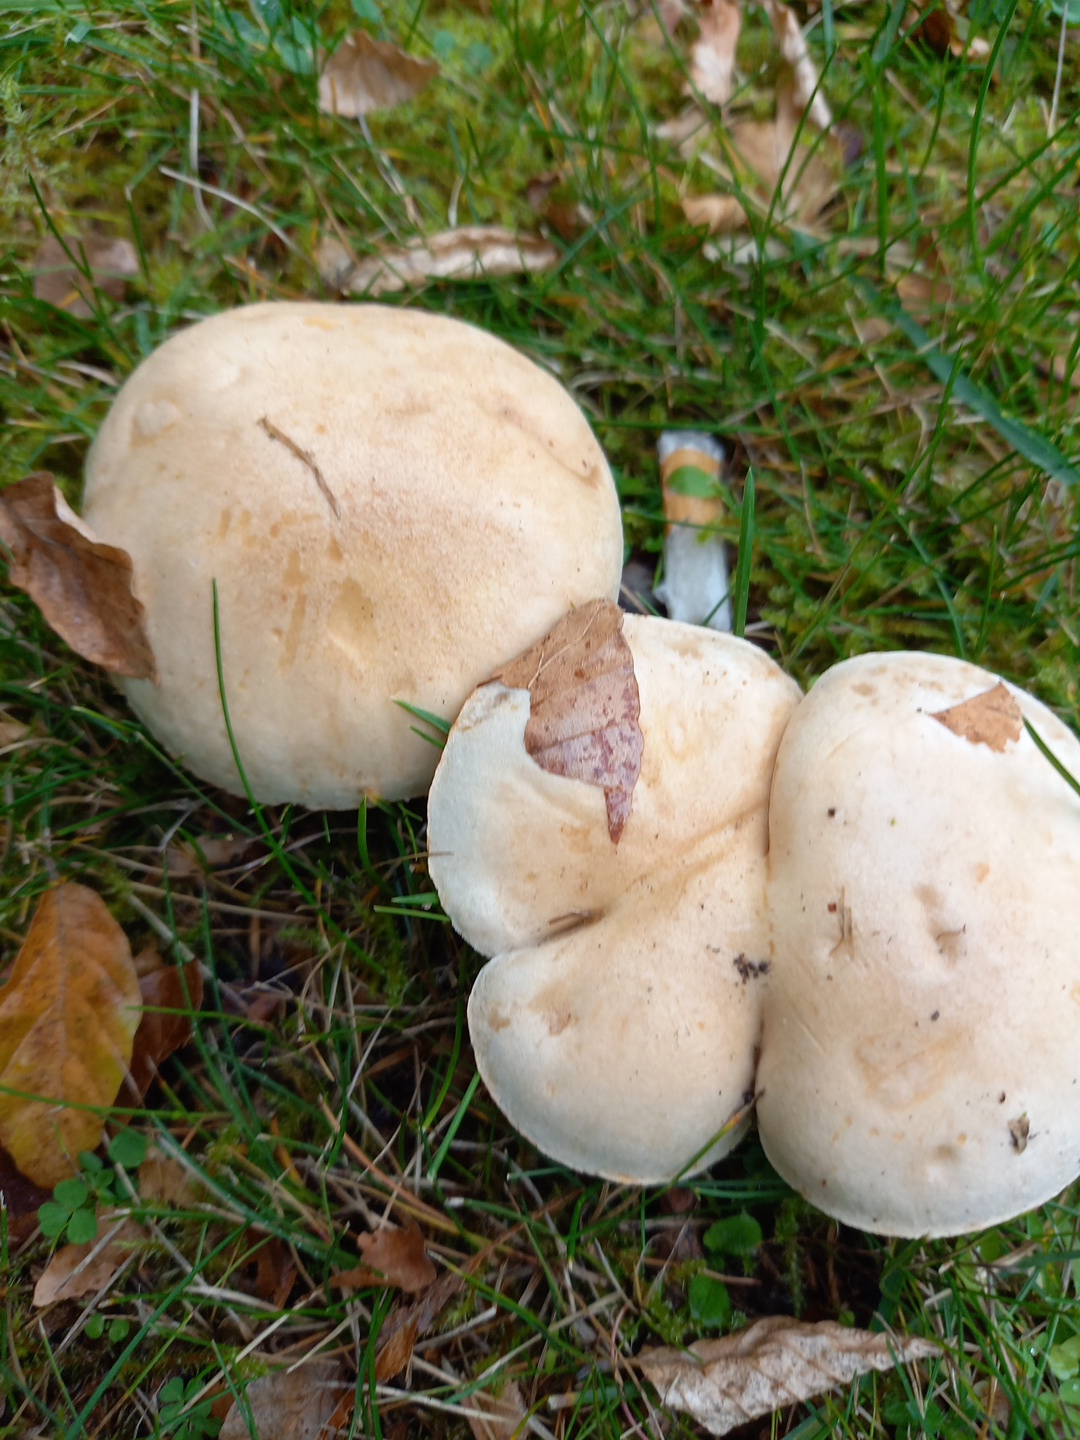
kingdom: Fungi
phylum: Basidiomycota
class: Agaricomycetes
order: Agaricales
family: Hymenogastraceae
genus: Hebeloma
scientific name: Hebeloma crustuliniforme
